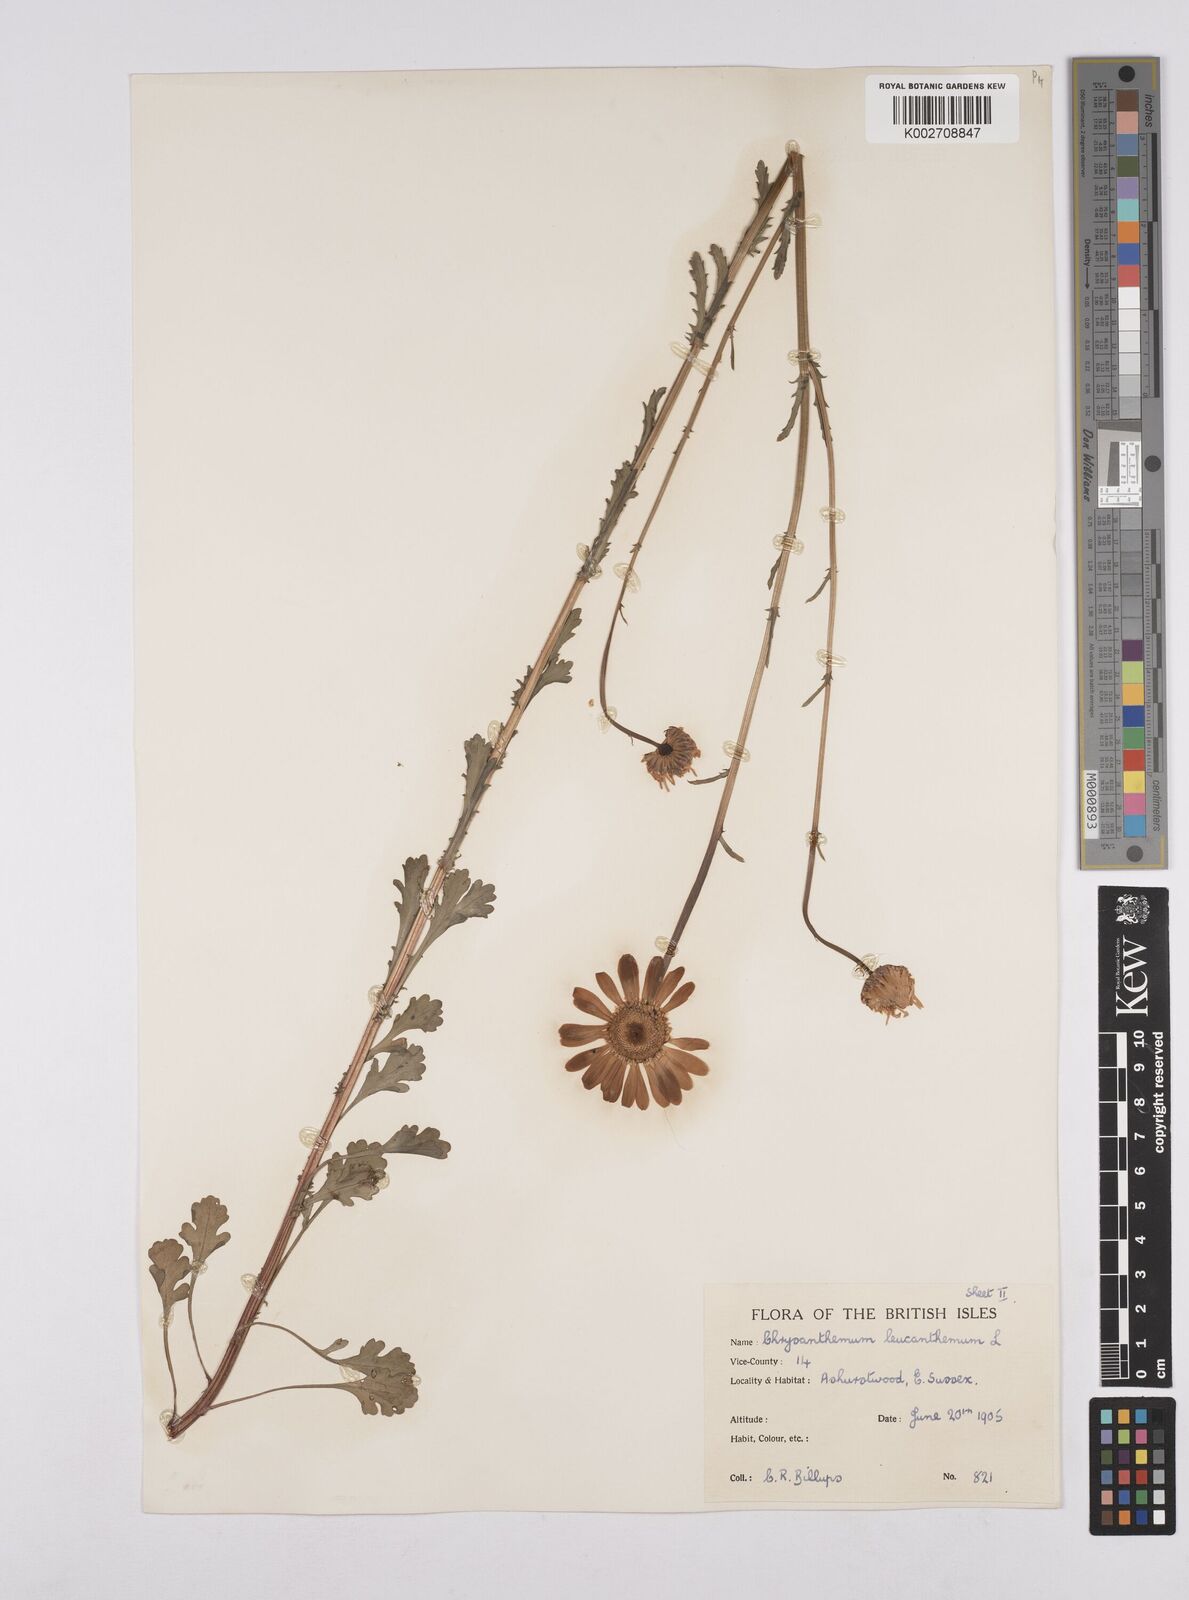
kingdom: Plantae
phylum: Tracheophyta
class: Magnoliopsida
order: Asterales
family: Asteraceae
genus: Leucanthemum
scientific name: Leucanthemum
